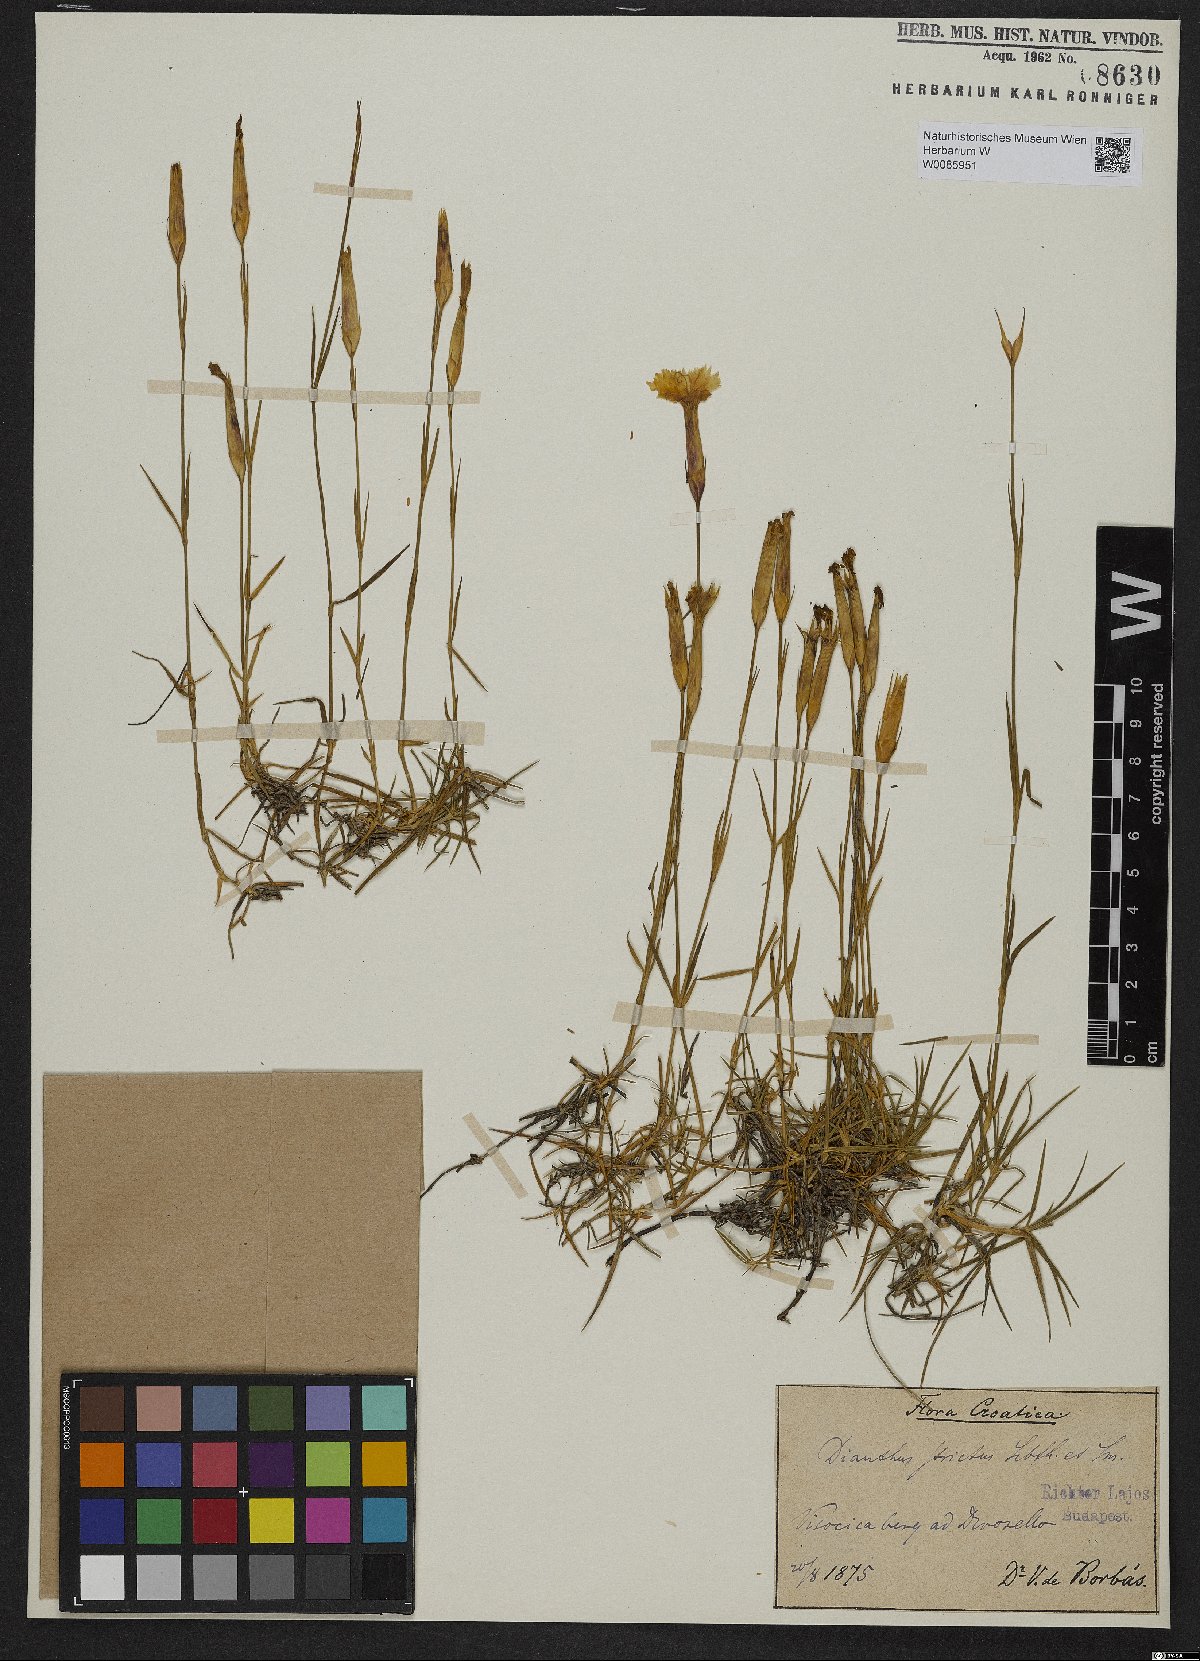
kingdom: Plantae
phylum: Tracheophyta
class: Magnoliopsida
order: Caryophyllales
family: Caryophyllaceae
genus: Dianthus
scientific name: Dianthus petraeus
